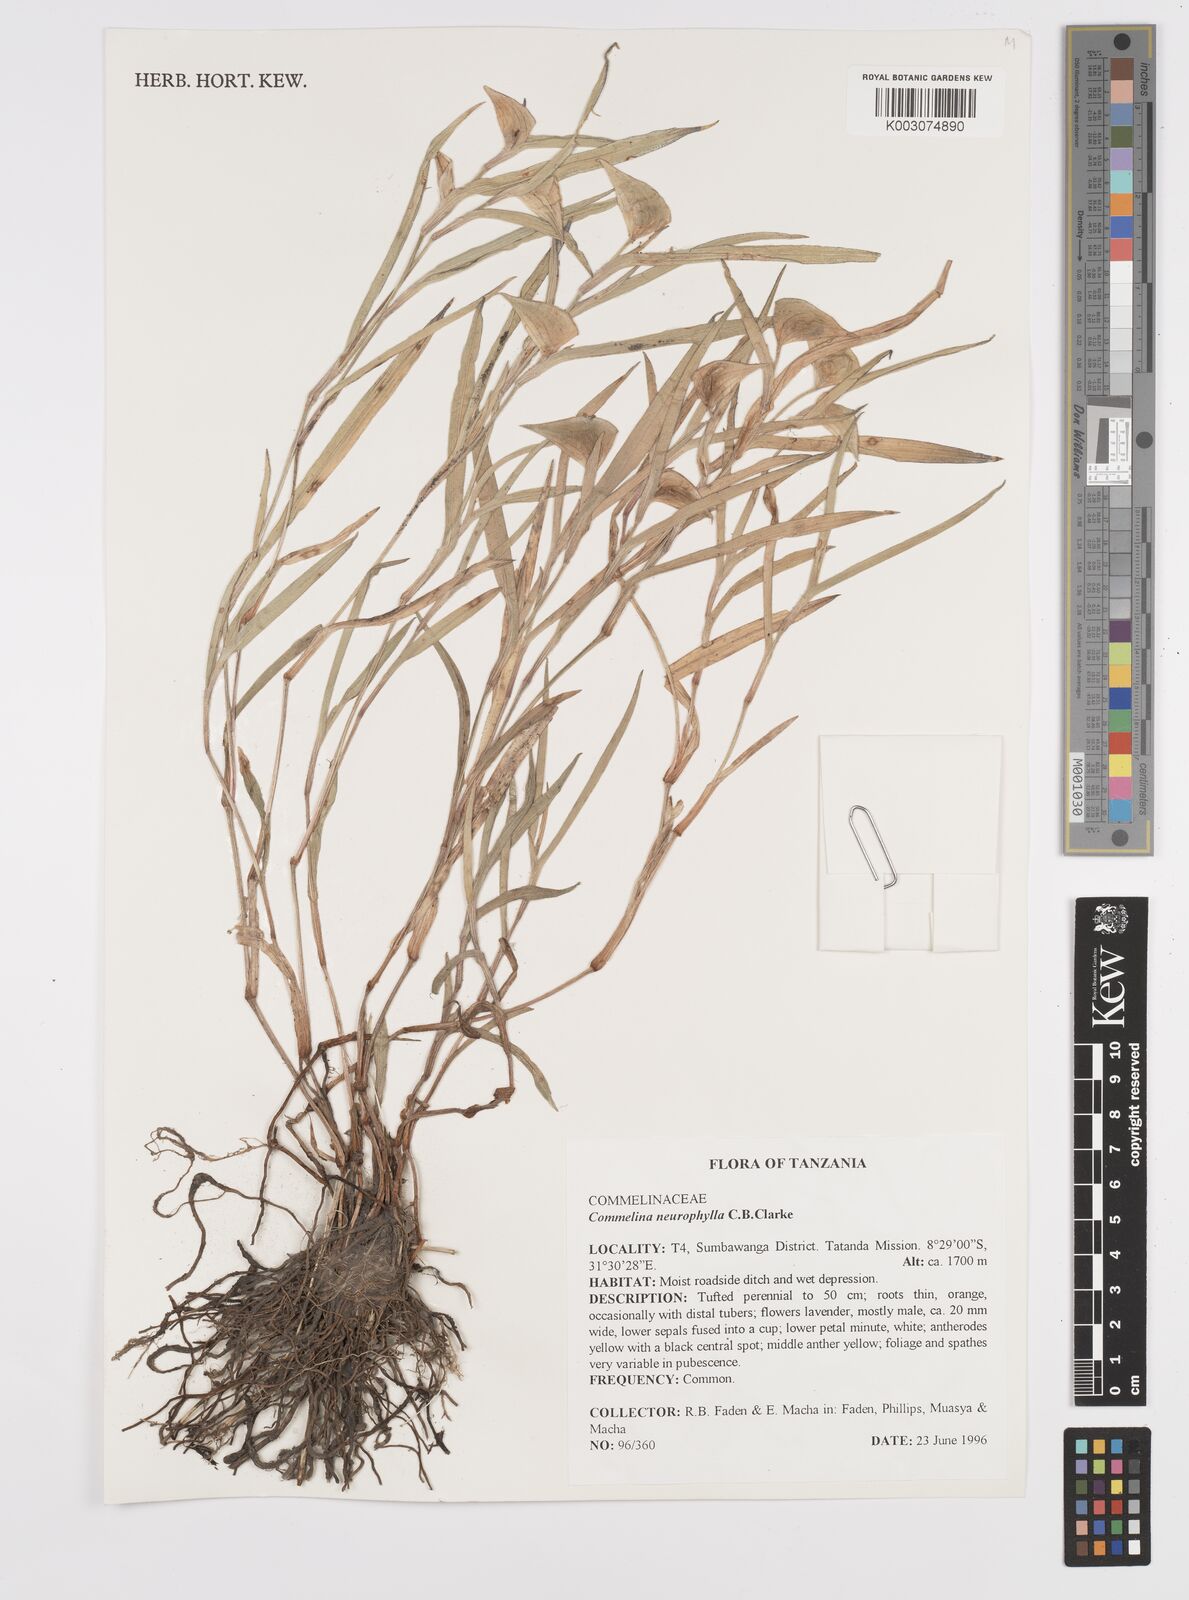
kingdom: Plantae
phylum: Tracheophyta
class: Liliopsida
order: Commelinales
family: Commelinaceae
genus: Commelina
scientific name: Commelina neurophylla
